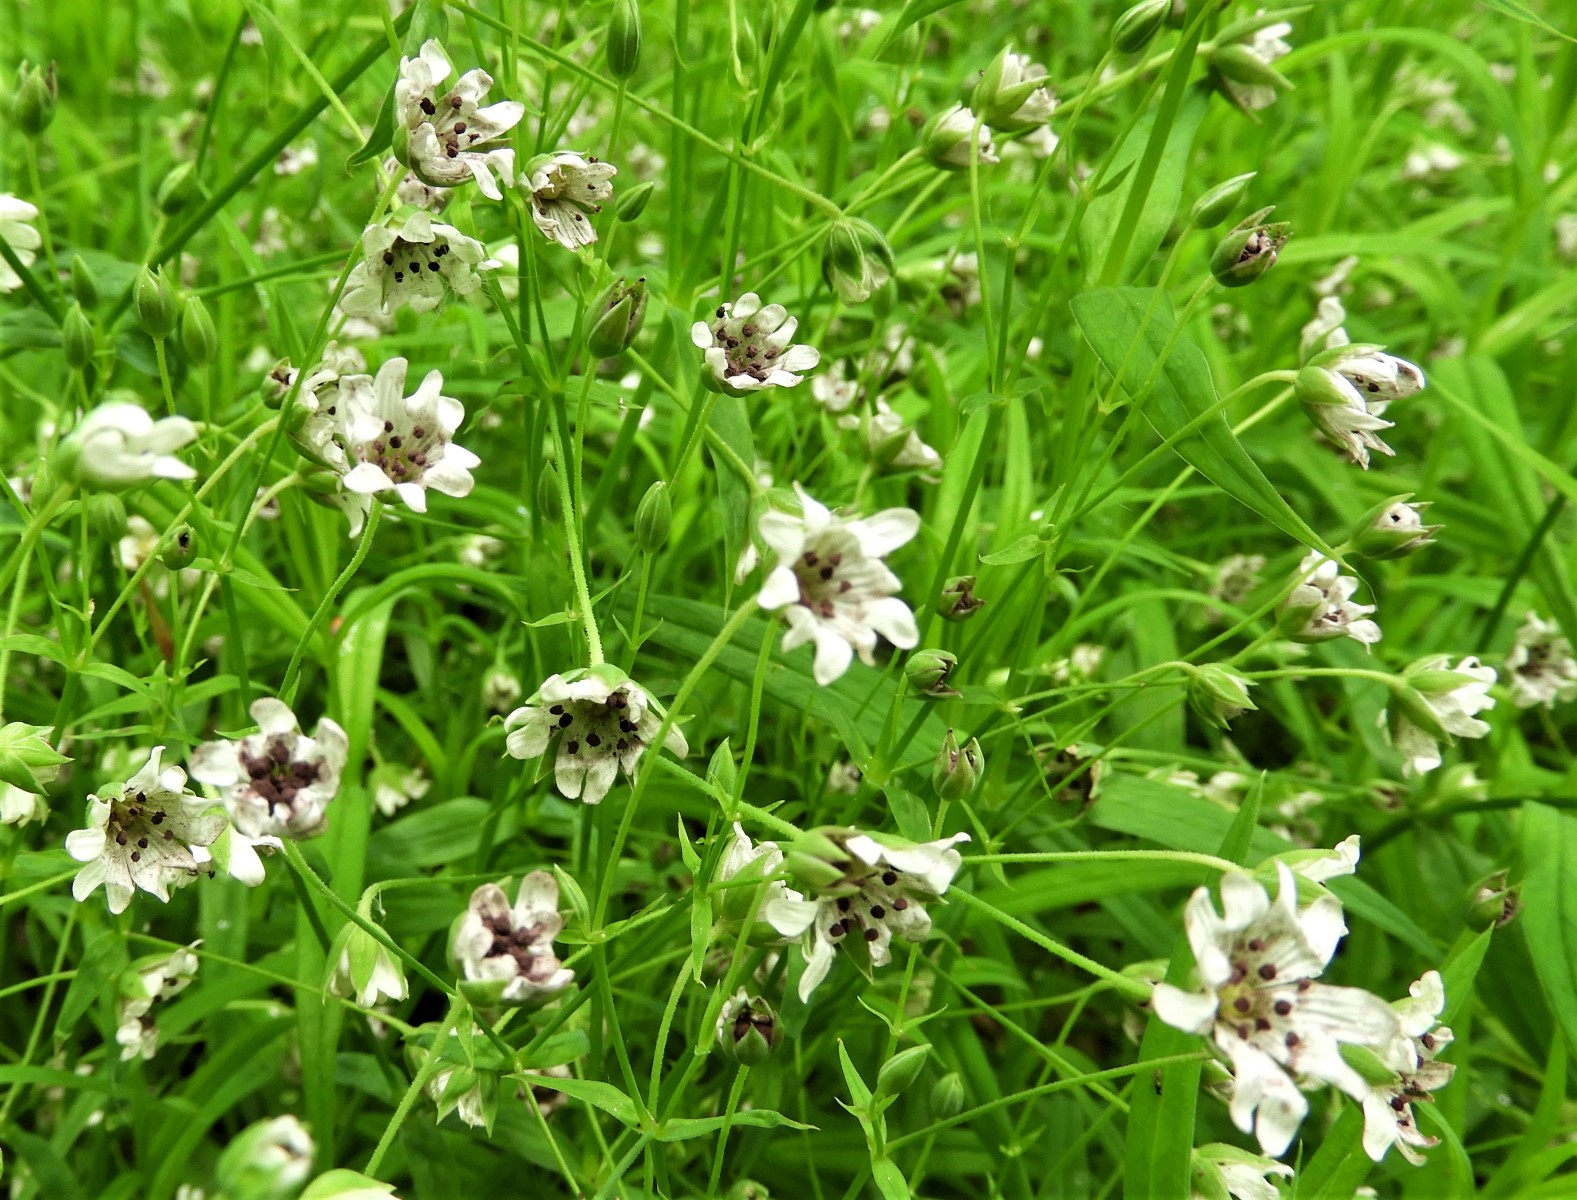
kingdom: Fungi
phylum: Basidiomycota
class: Microbotryomycetes
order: Microbotryales
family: Microbotryaceae
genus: Microbotryum
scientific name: Microbotryum stellariae
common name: fladstjerne-støvbladrust
